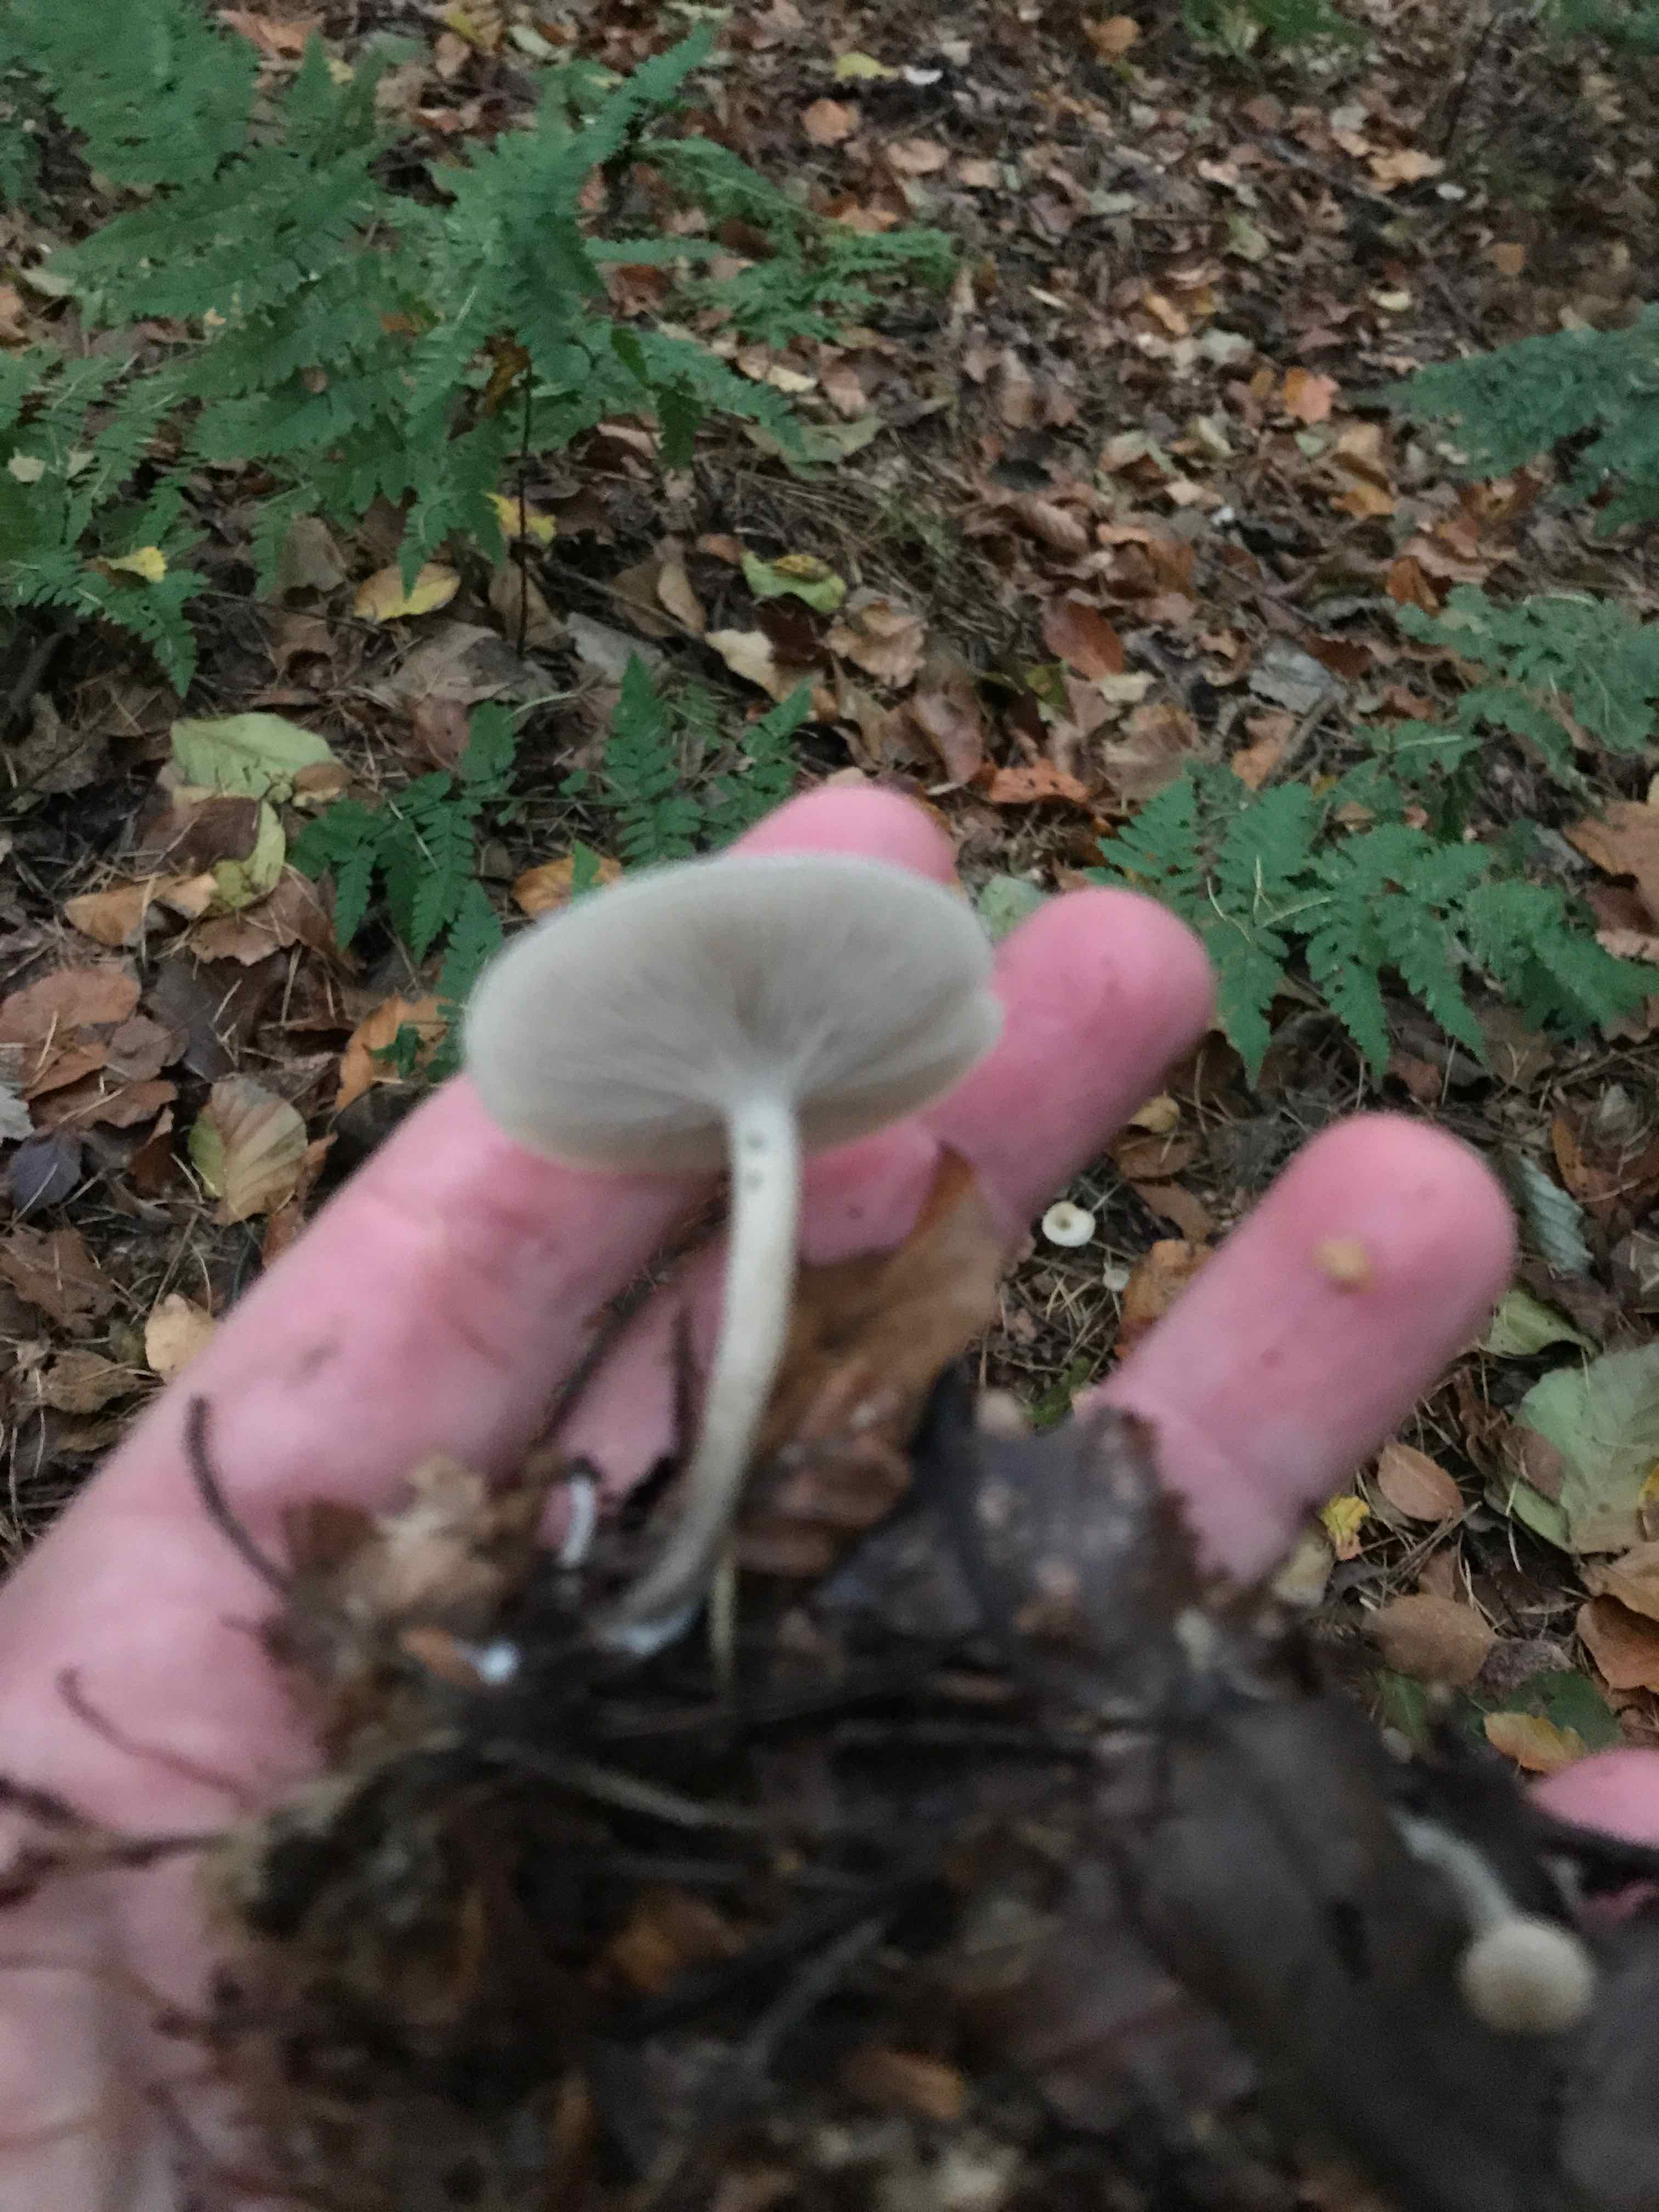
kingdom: Fungi
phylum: Basidiomycota
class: Agaricomycetes
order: Agaricales
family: Tricholomataceae
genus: Clitocybe
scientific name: Clitocybe metachroa
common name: grå tragthat
